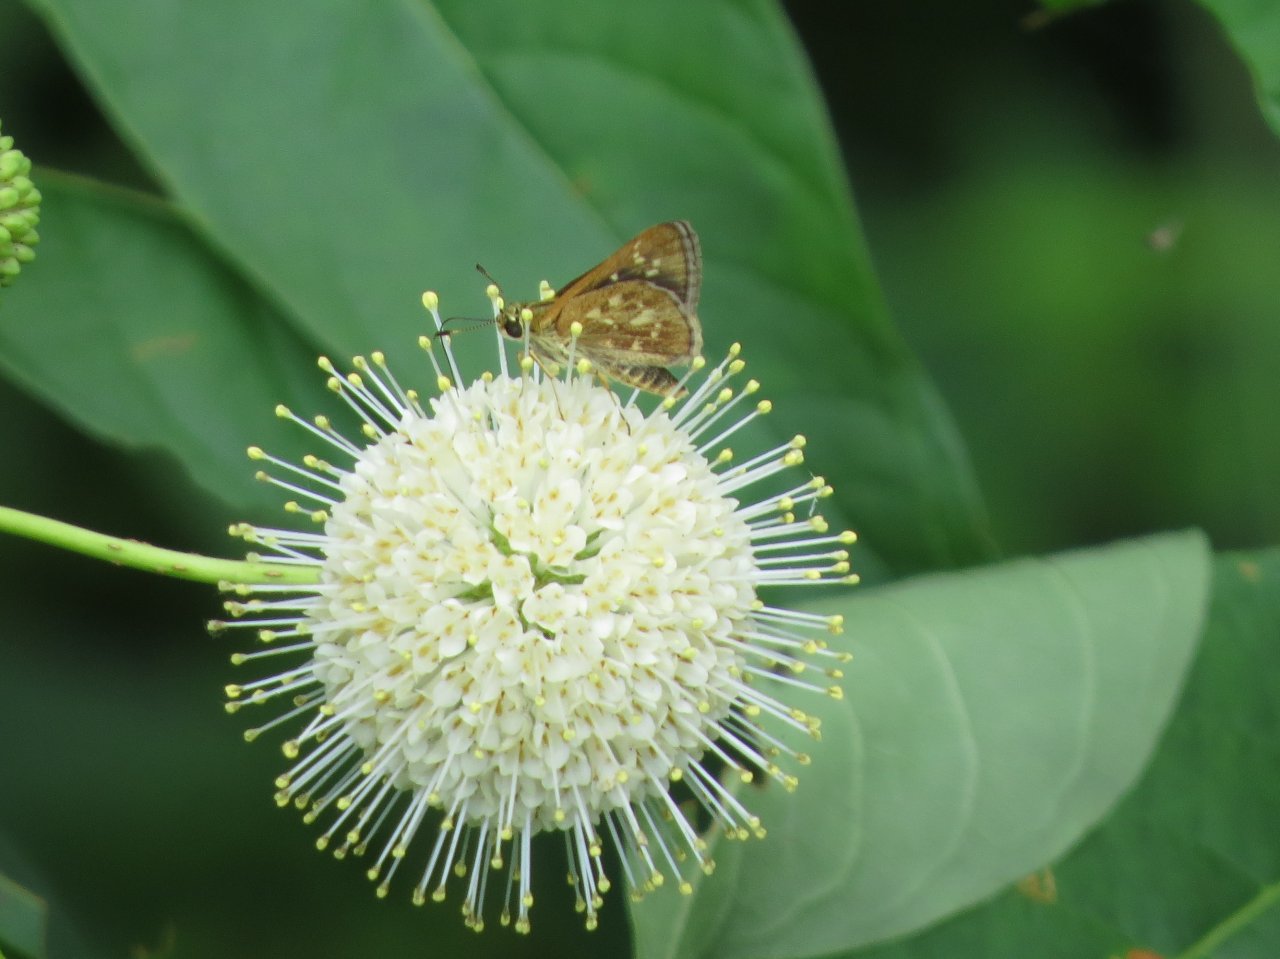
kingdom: Animalia
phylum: Arthropoda
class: Insecta
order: Lepidoptera
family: Hesperiidae
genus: Mastor
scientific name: Mastor carolina
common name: Reversed Roadside-skipper
